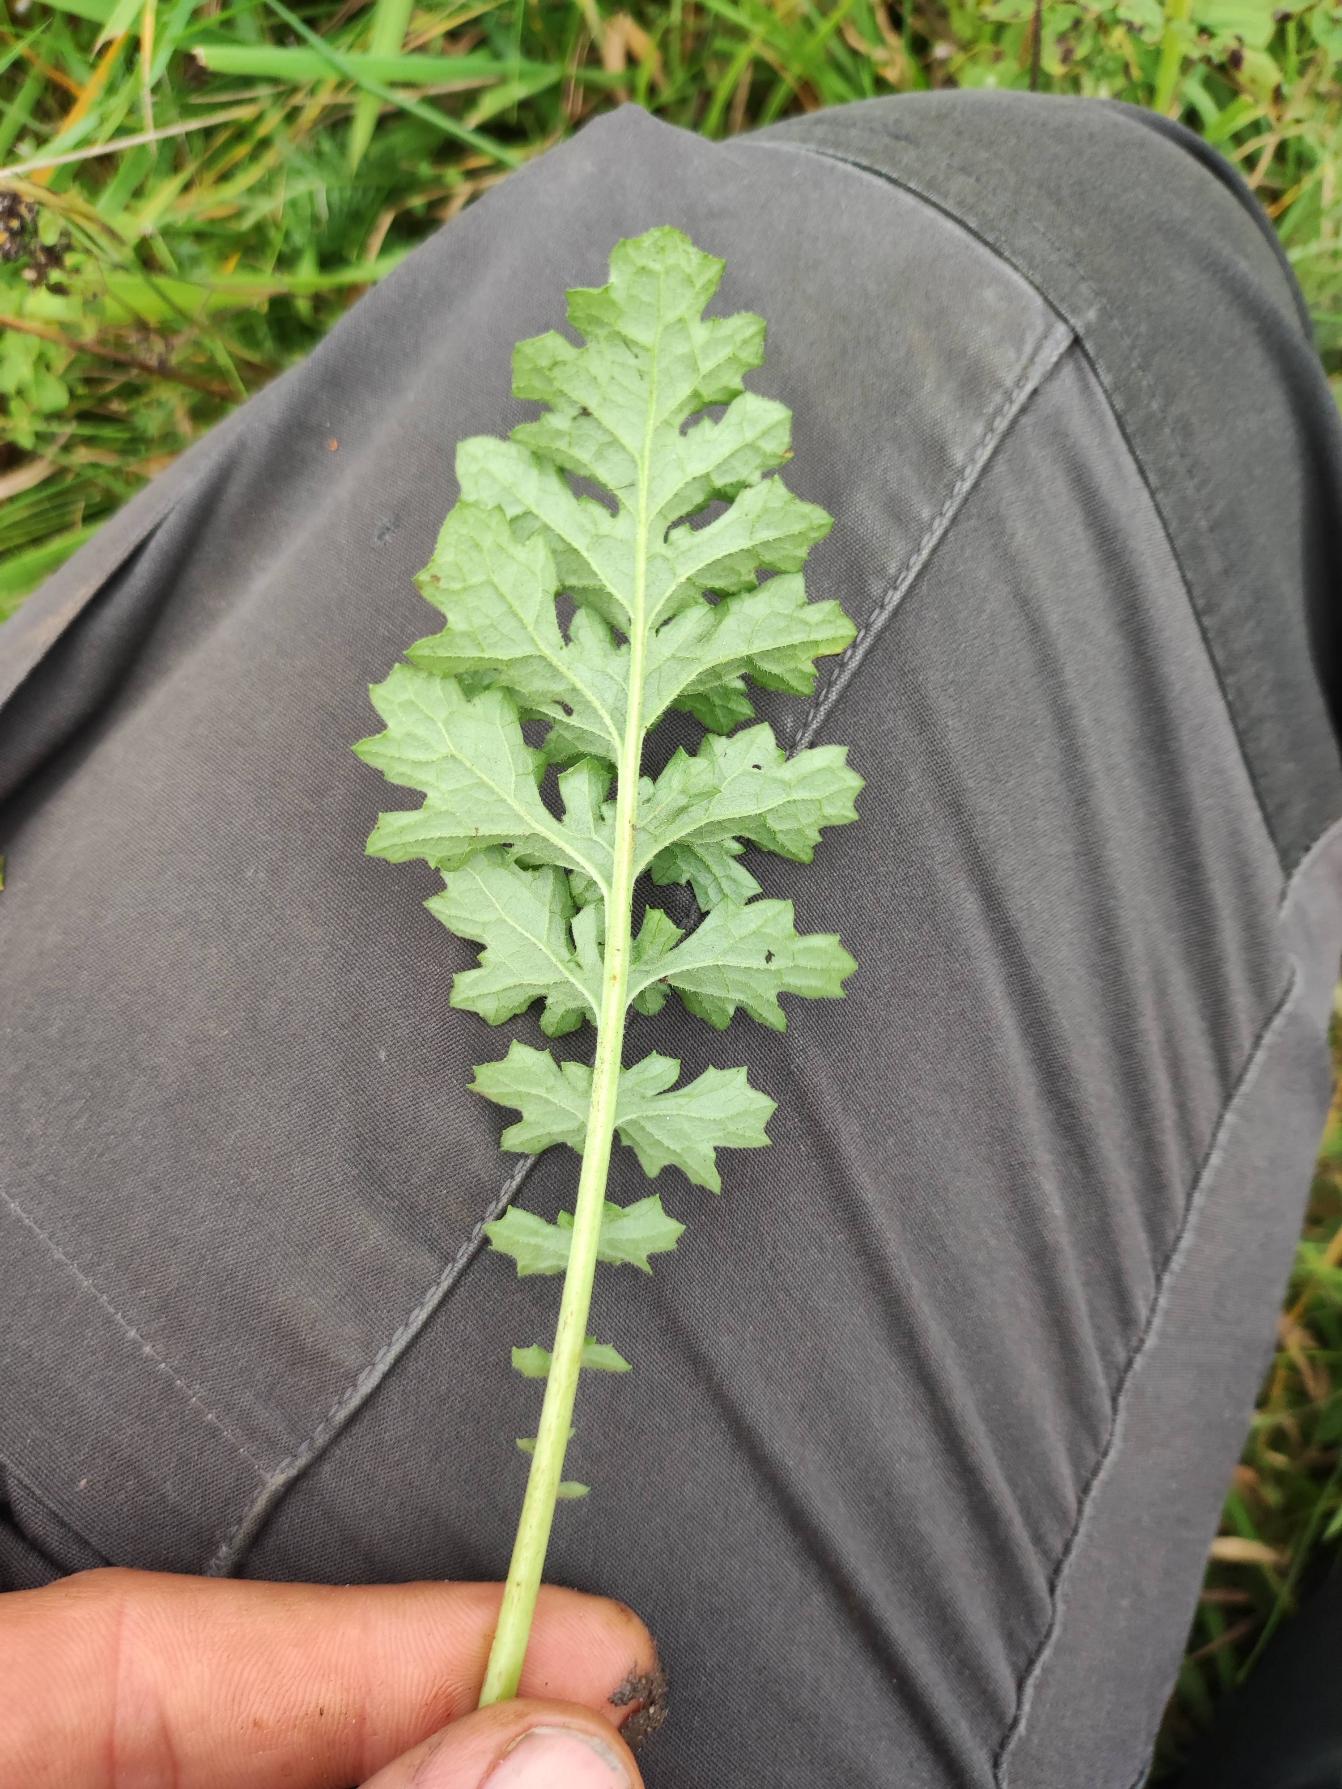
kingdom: Plantae
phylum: Tracheophyta
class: Magnoliopsida
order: Asterales
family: Asteraceae
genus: Jacobaea
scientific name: Jacobaea vulgaris
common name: Eng-brandbæger
